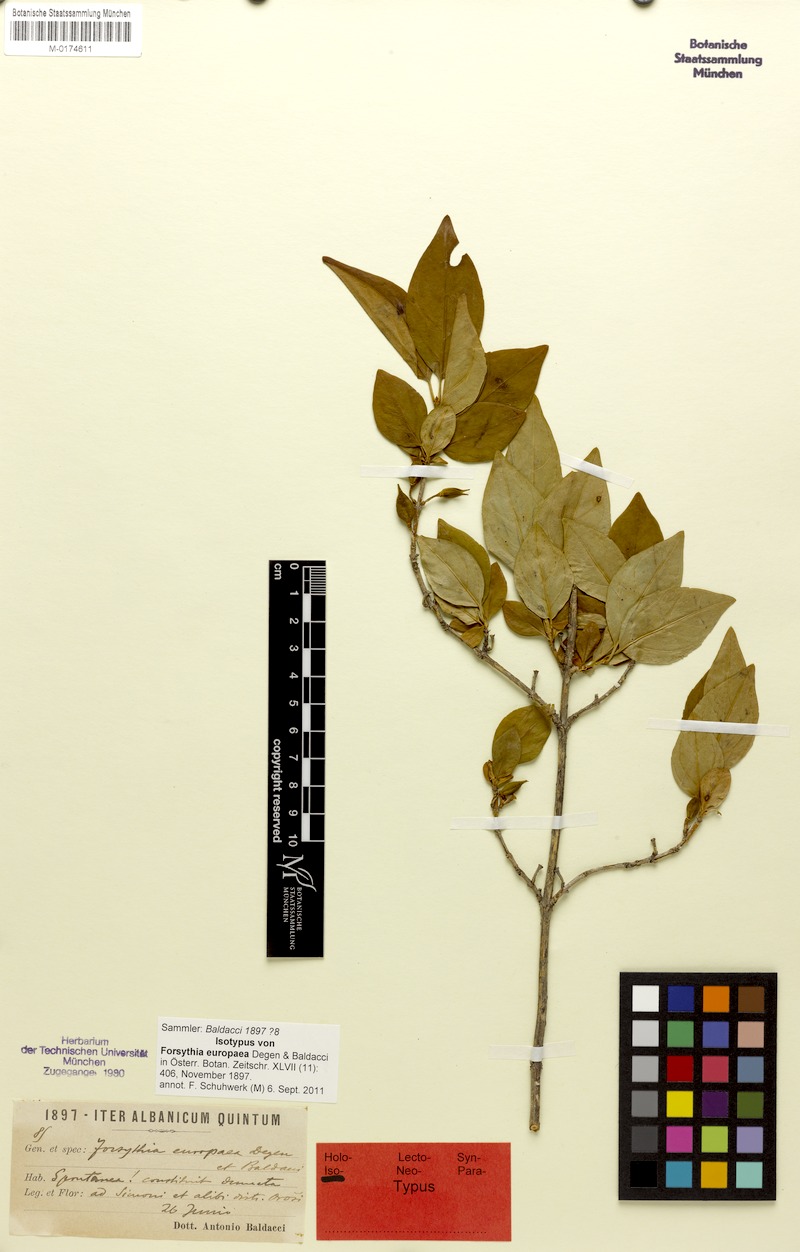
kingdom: Plantae
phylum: Tracheophyta
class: Magnoliopsida
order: Lamiales
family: Oleaceae
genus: Forsythia
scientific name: Forsythia europaea
